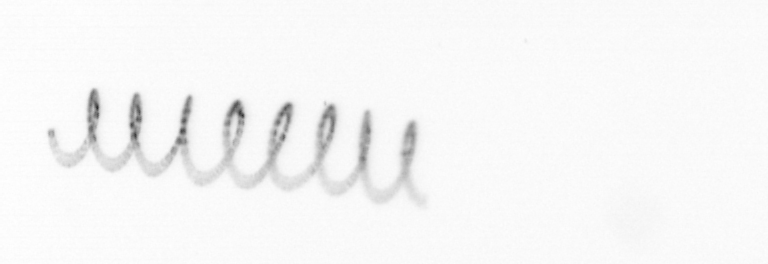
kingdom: Chromista
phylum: Ochrophyta
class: Bacillariophyceae
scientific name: Bacillariophyceae
